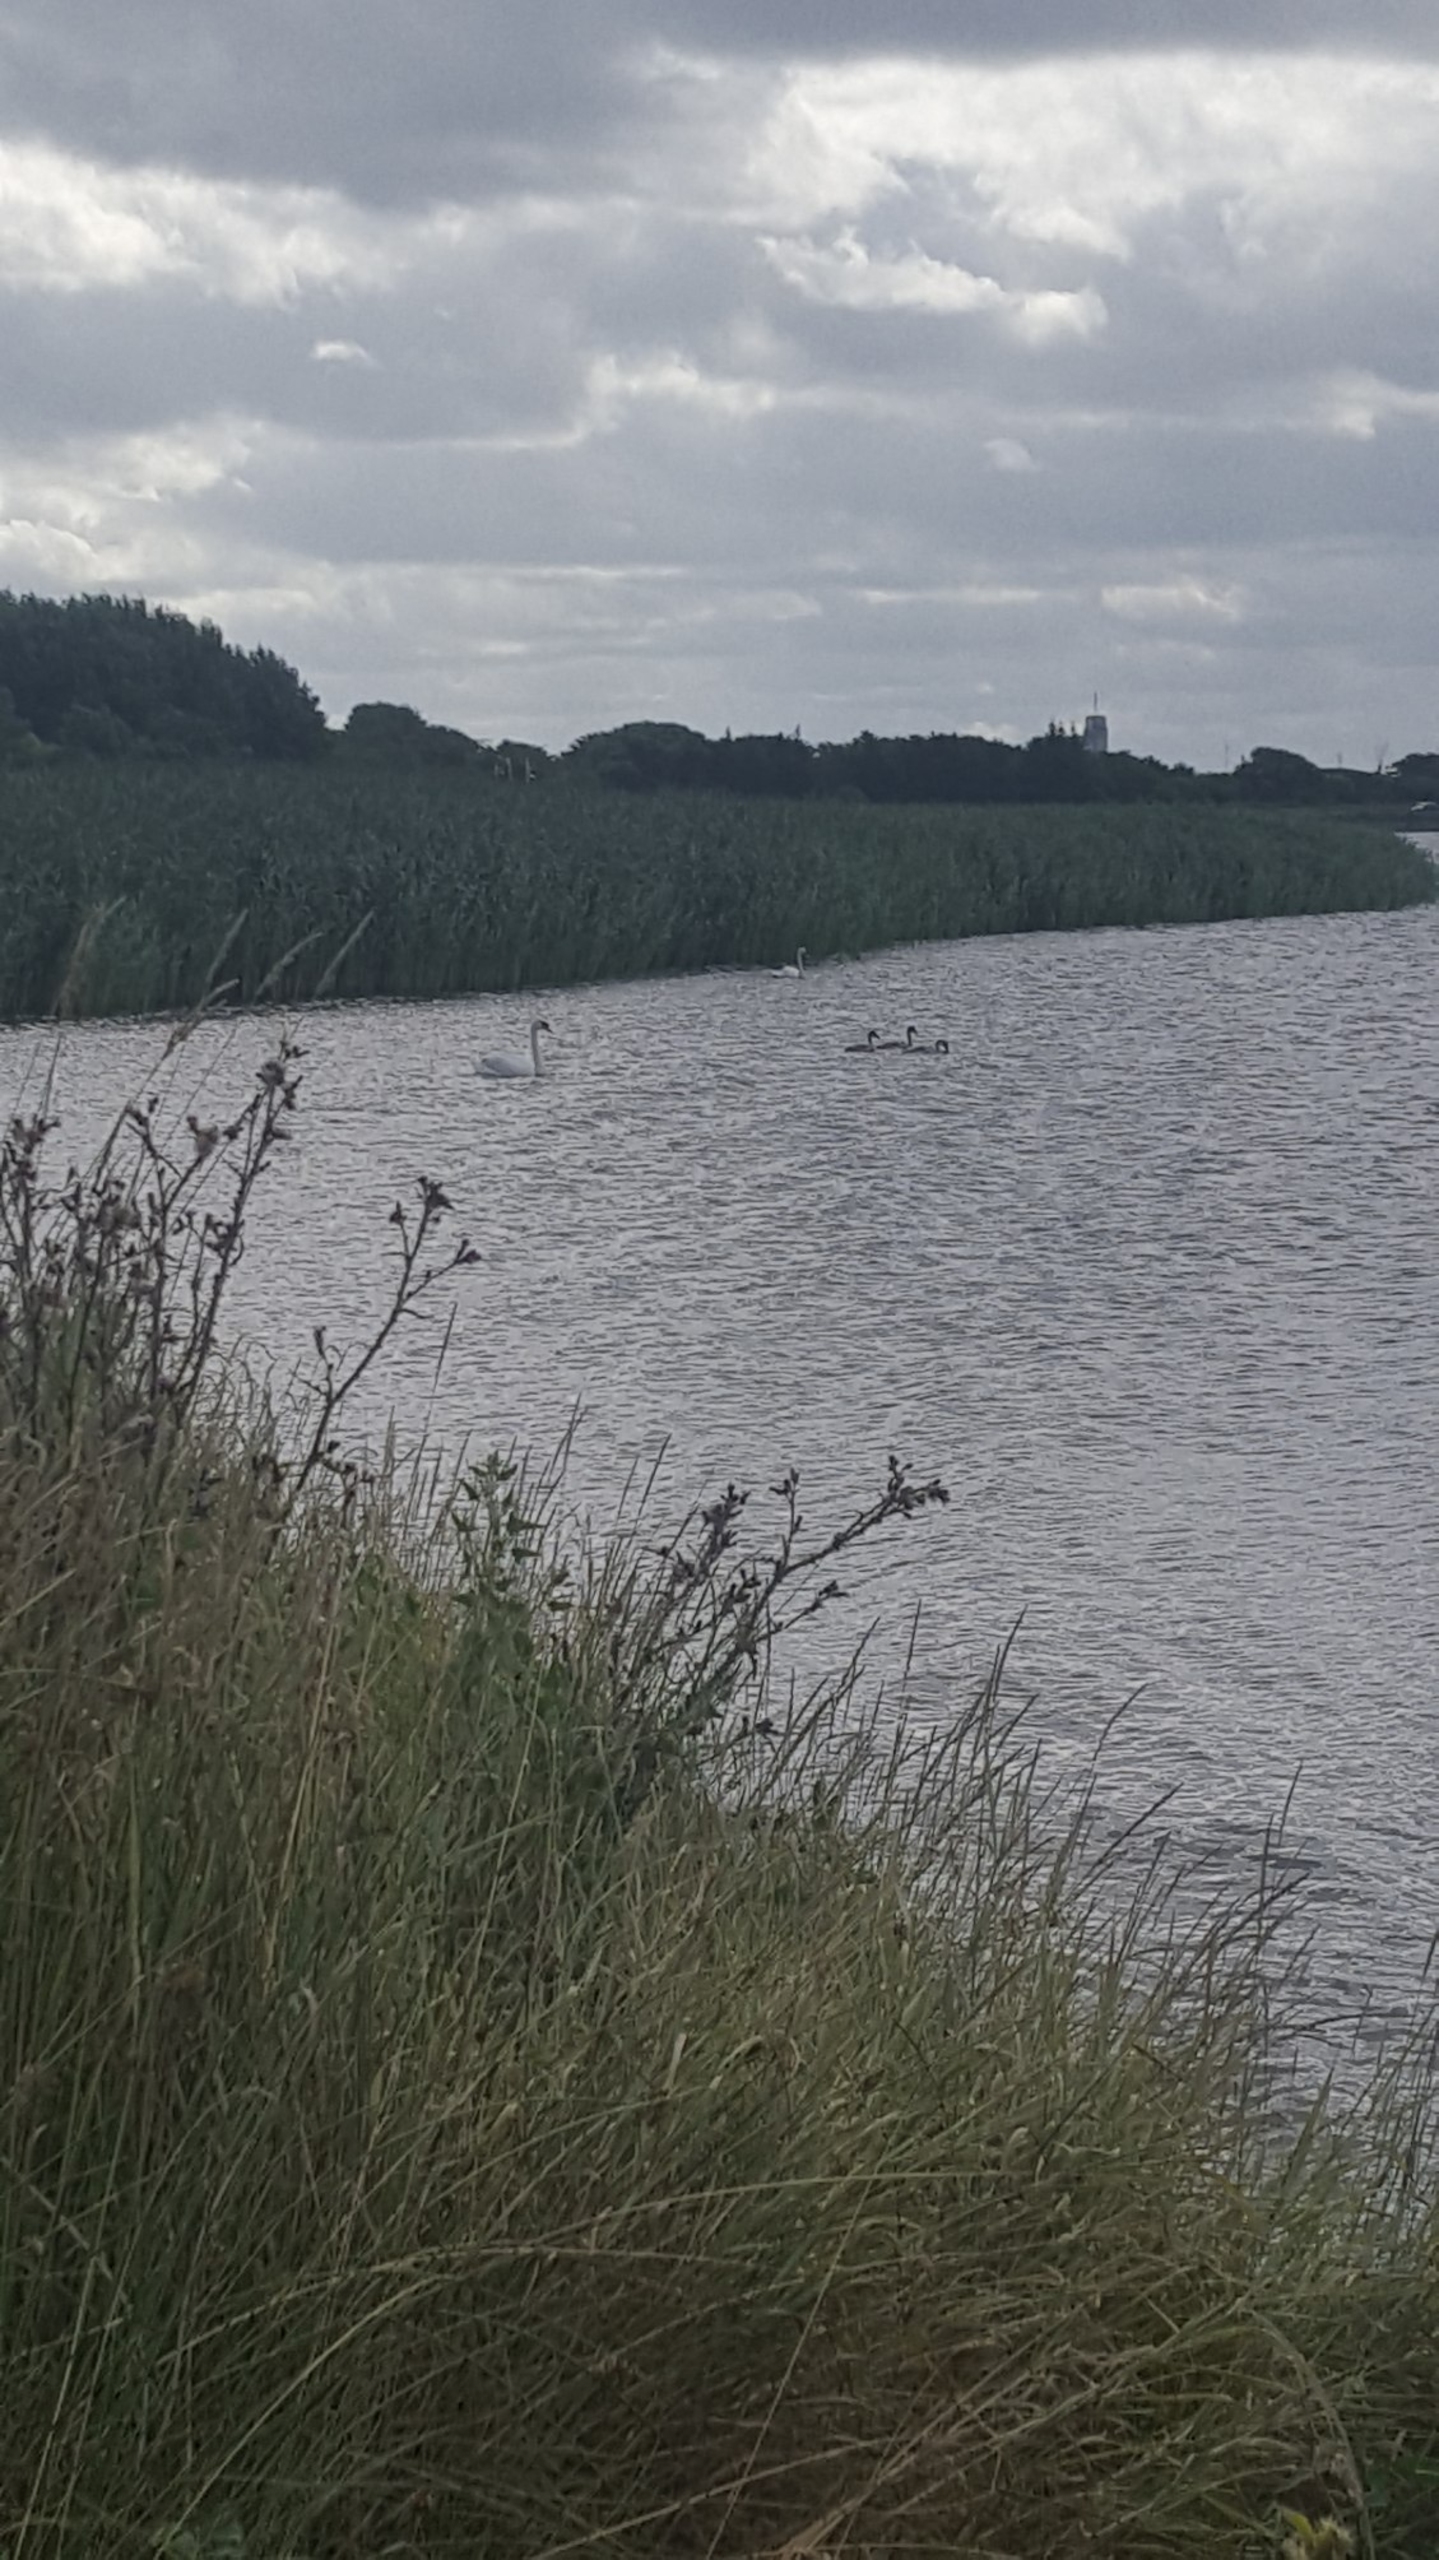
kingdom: Animalia
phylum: Chordata
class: Aves
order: Anseriformes
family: Anatidae
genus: Cygnus
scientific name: Cygnus olor
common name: Knopsvane
